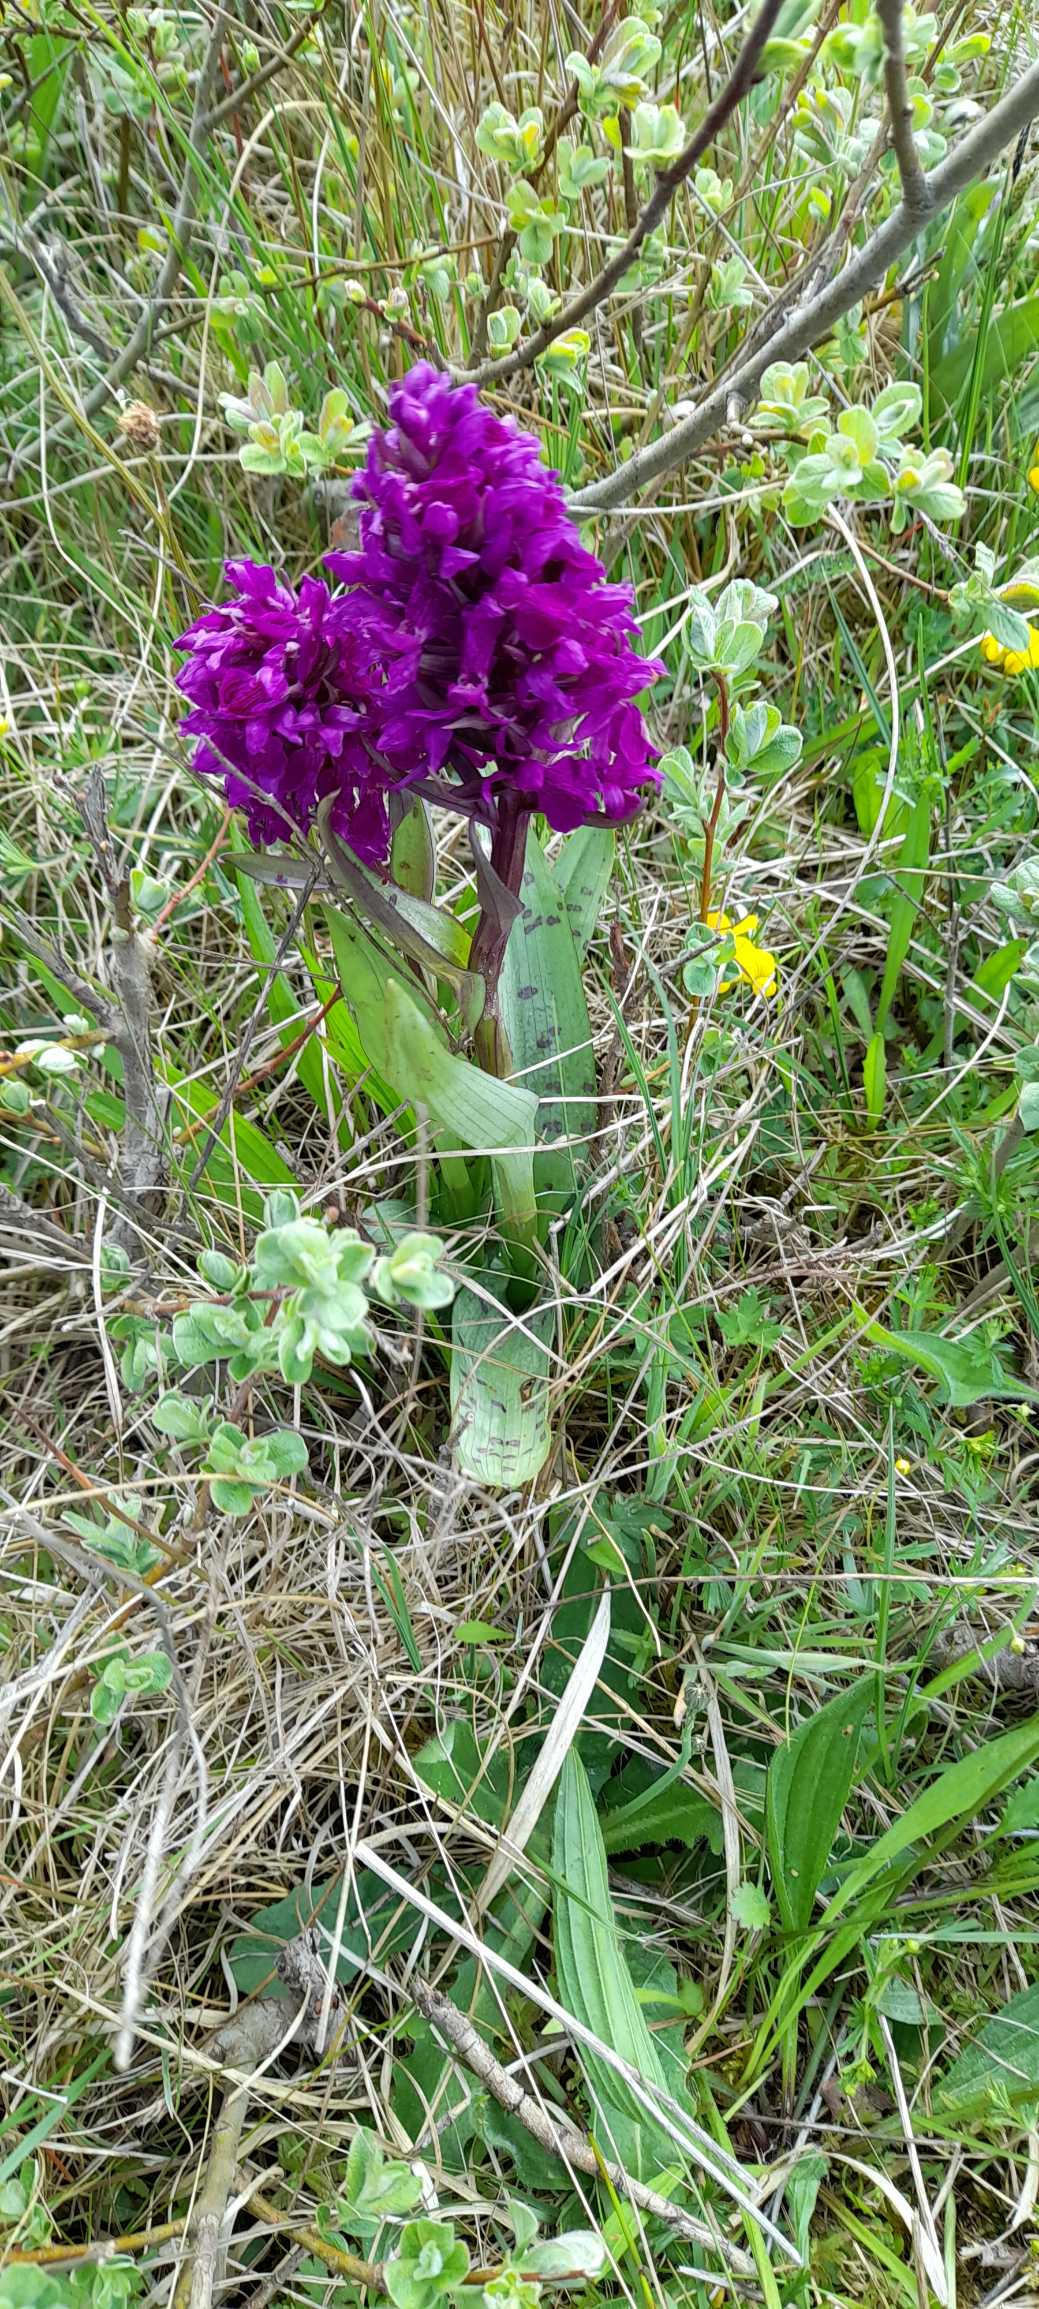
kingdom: Plantae
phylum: Tracheophyta
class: Liliopsida
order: Asparagales
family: Orchidaceae
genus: Dactylorhiza
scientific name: Dactylorhiza majalis
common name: Maj-gøgeurt
